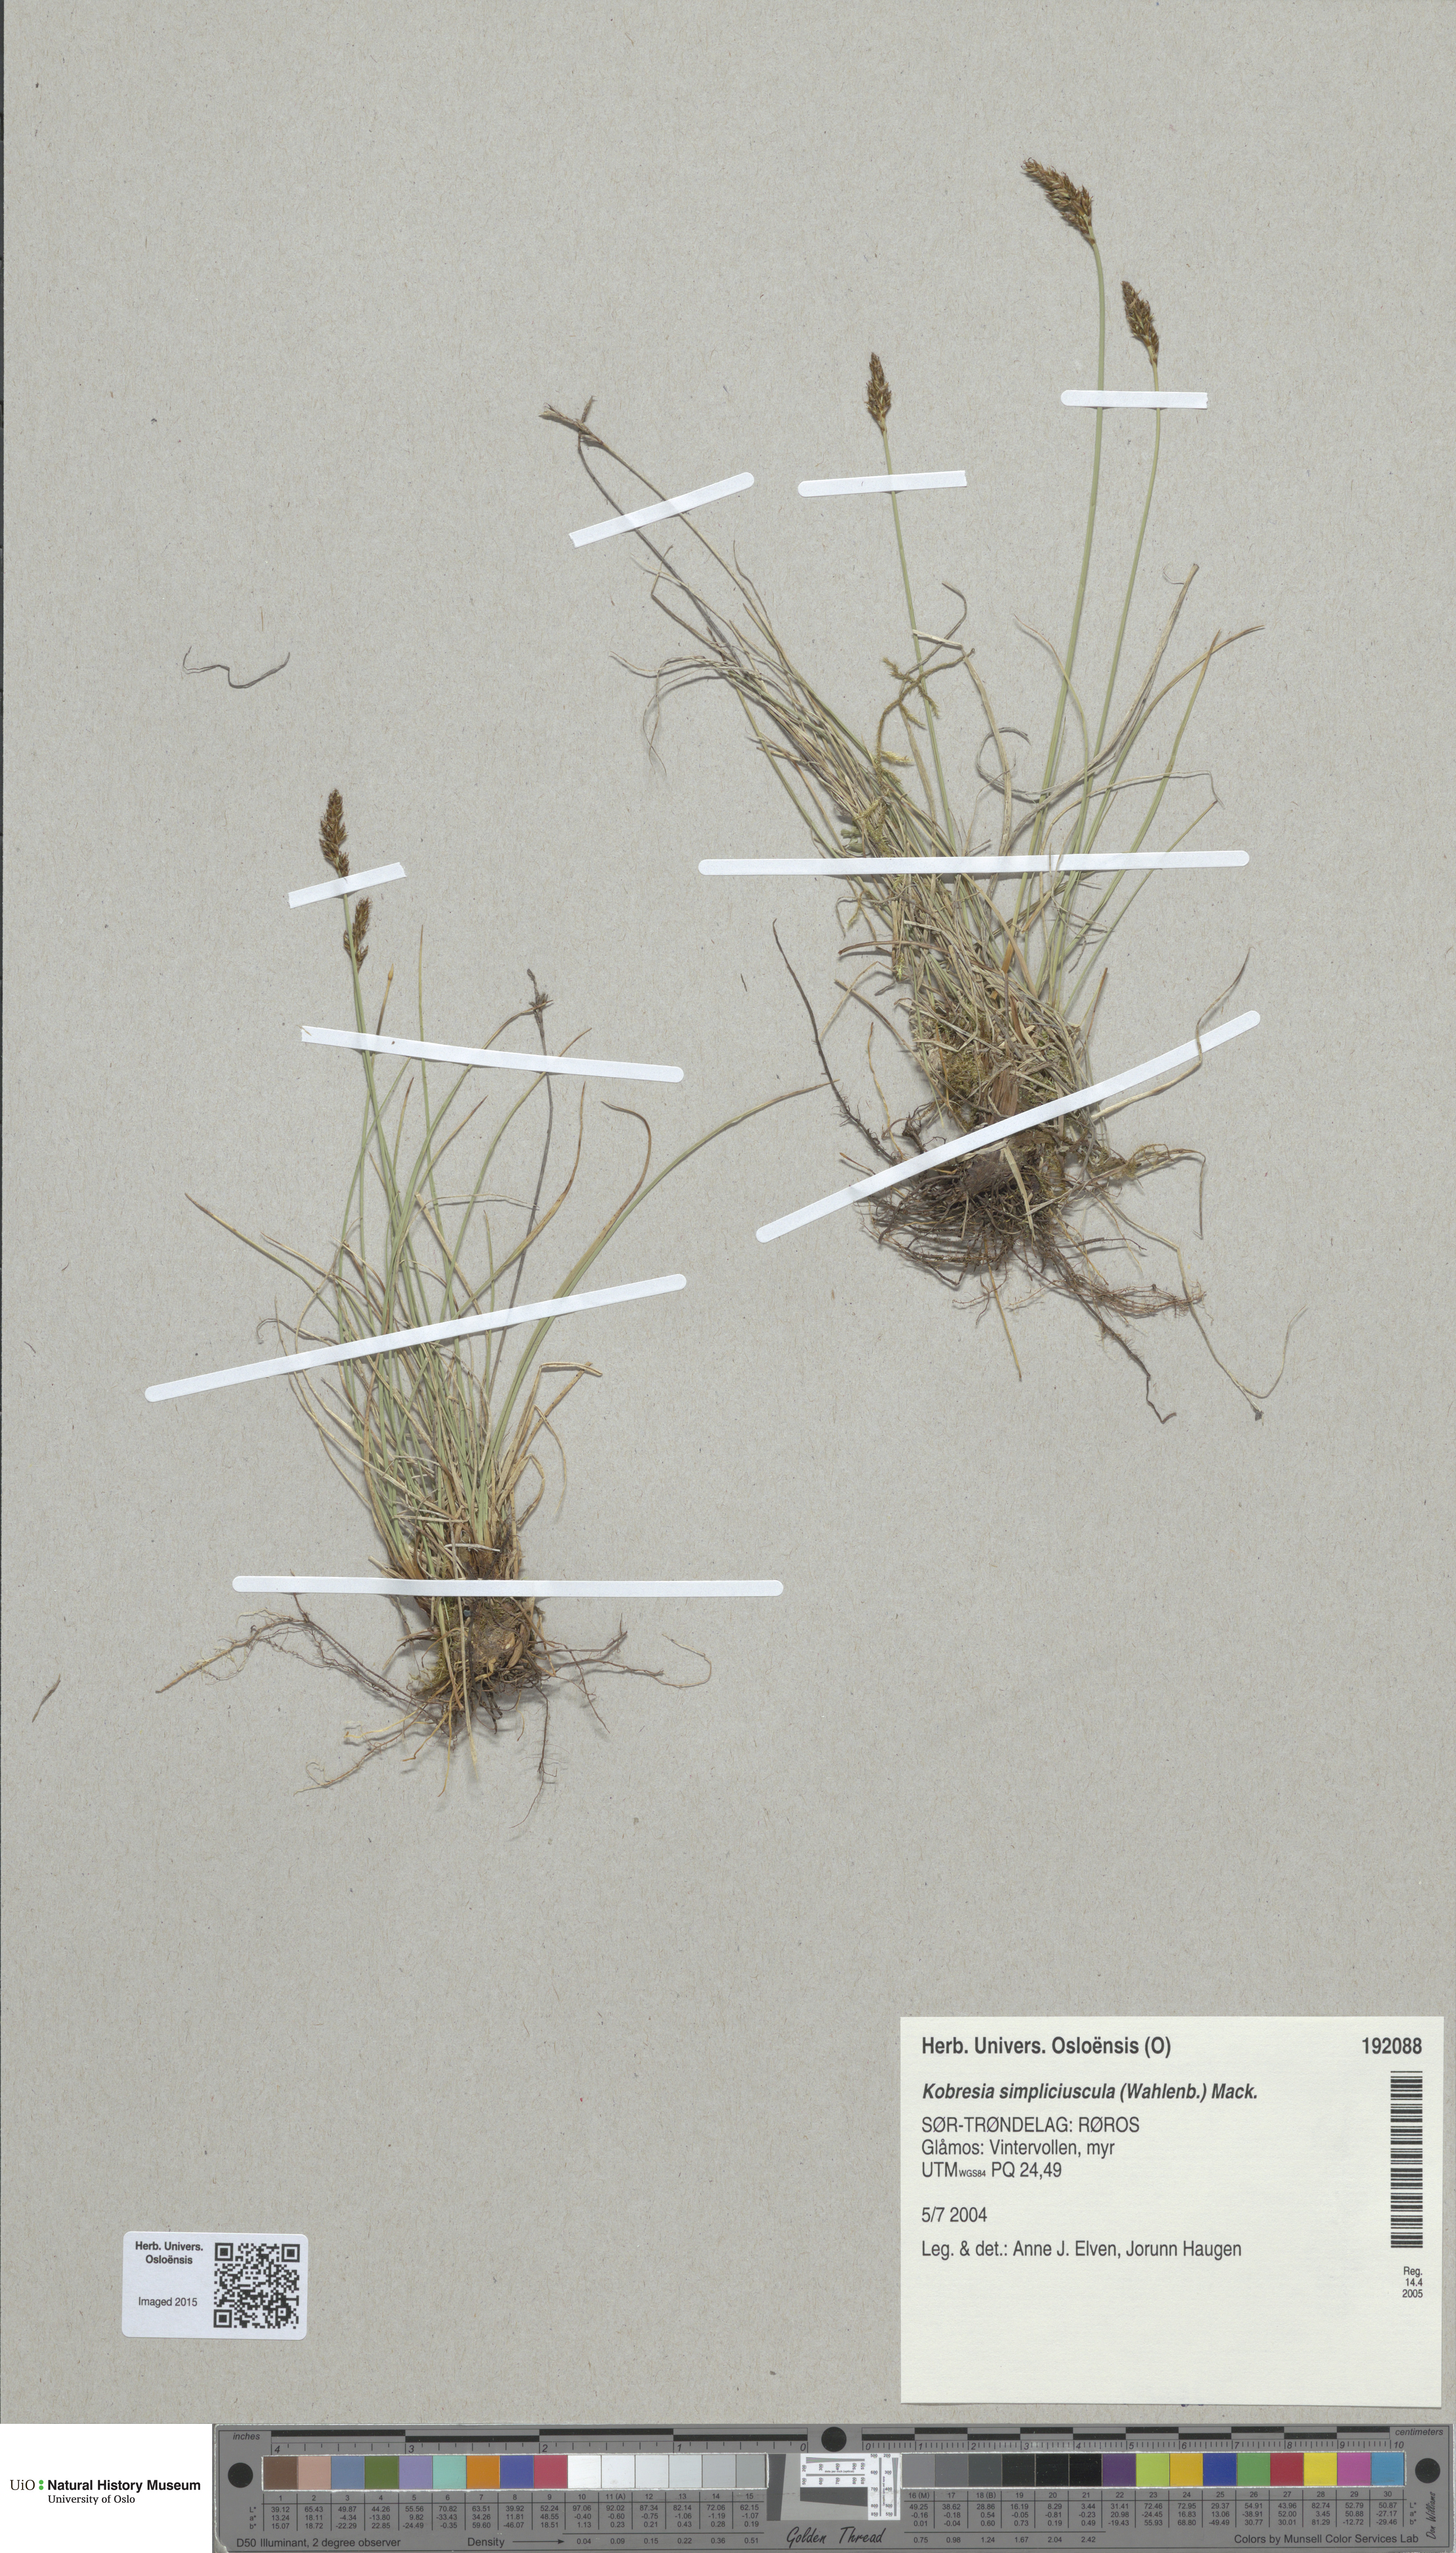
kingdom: Plantae
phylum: Tracheophyta
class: Liliopsida
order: Poales
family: Cyperaceae
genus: Carex
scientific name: Carex simpliciuscula
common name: Simple bog sedge
